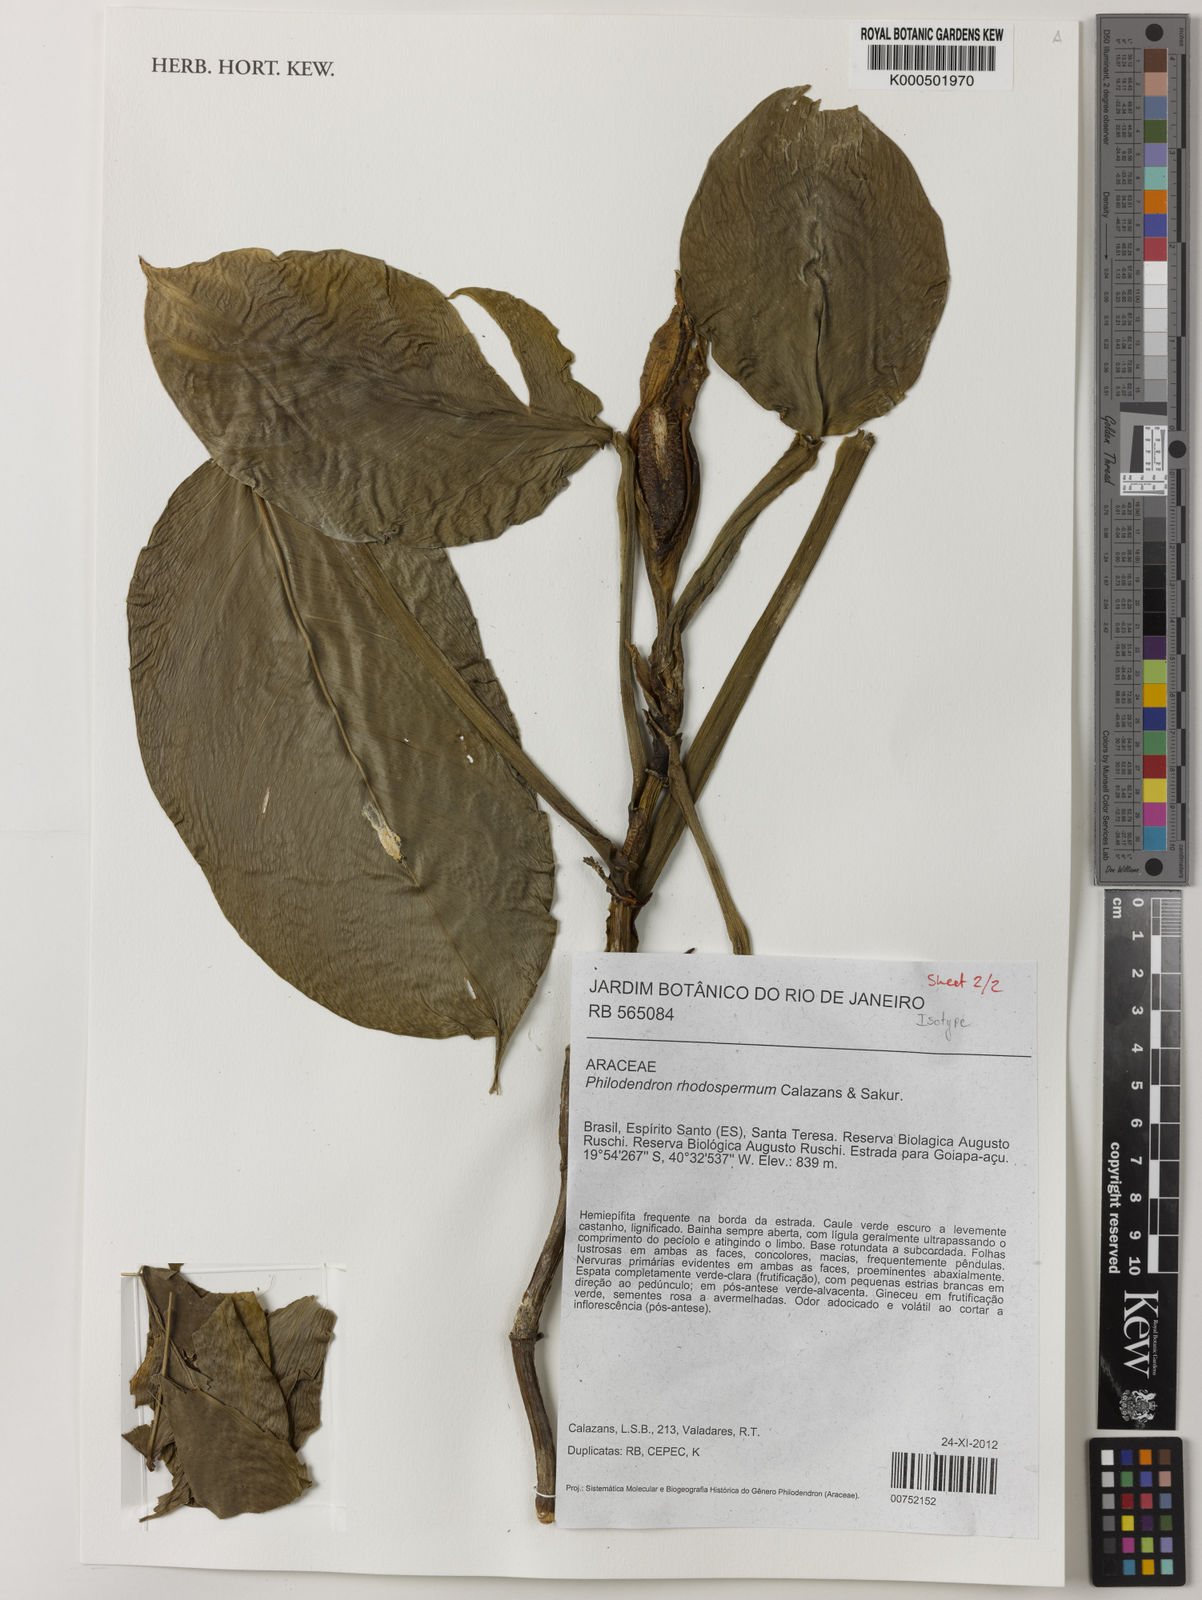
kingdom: Plantae
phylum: Tracheophyta
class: Liliopsida
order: Alismatales
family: Araceae
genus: Philodendron
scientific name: Philodendron rhodospermum
